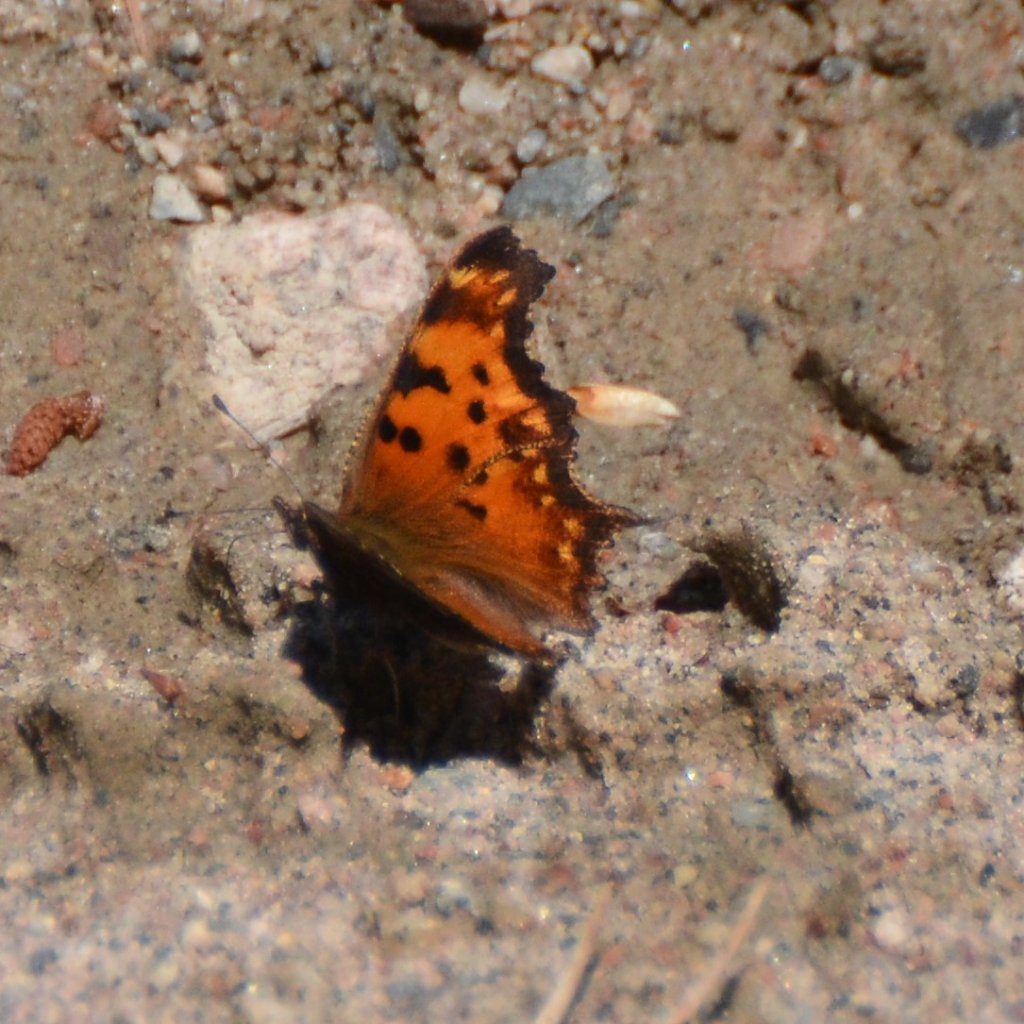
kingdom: Animalia
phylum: Arthropoda
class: Insecta
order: Lepidoptera
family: Nymphalidae
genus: Polygonia
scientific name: Polygonia gracilis
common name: Hoary Comma
